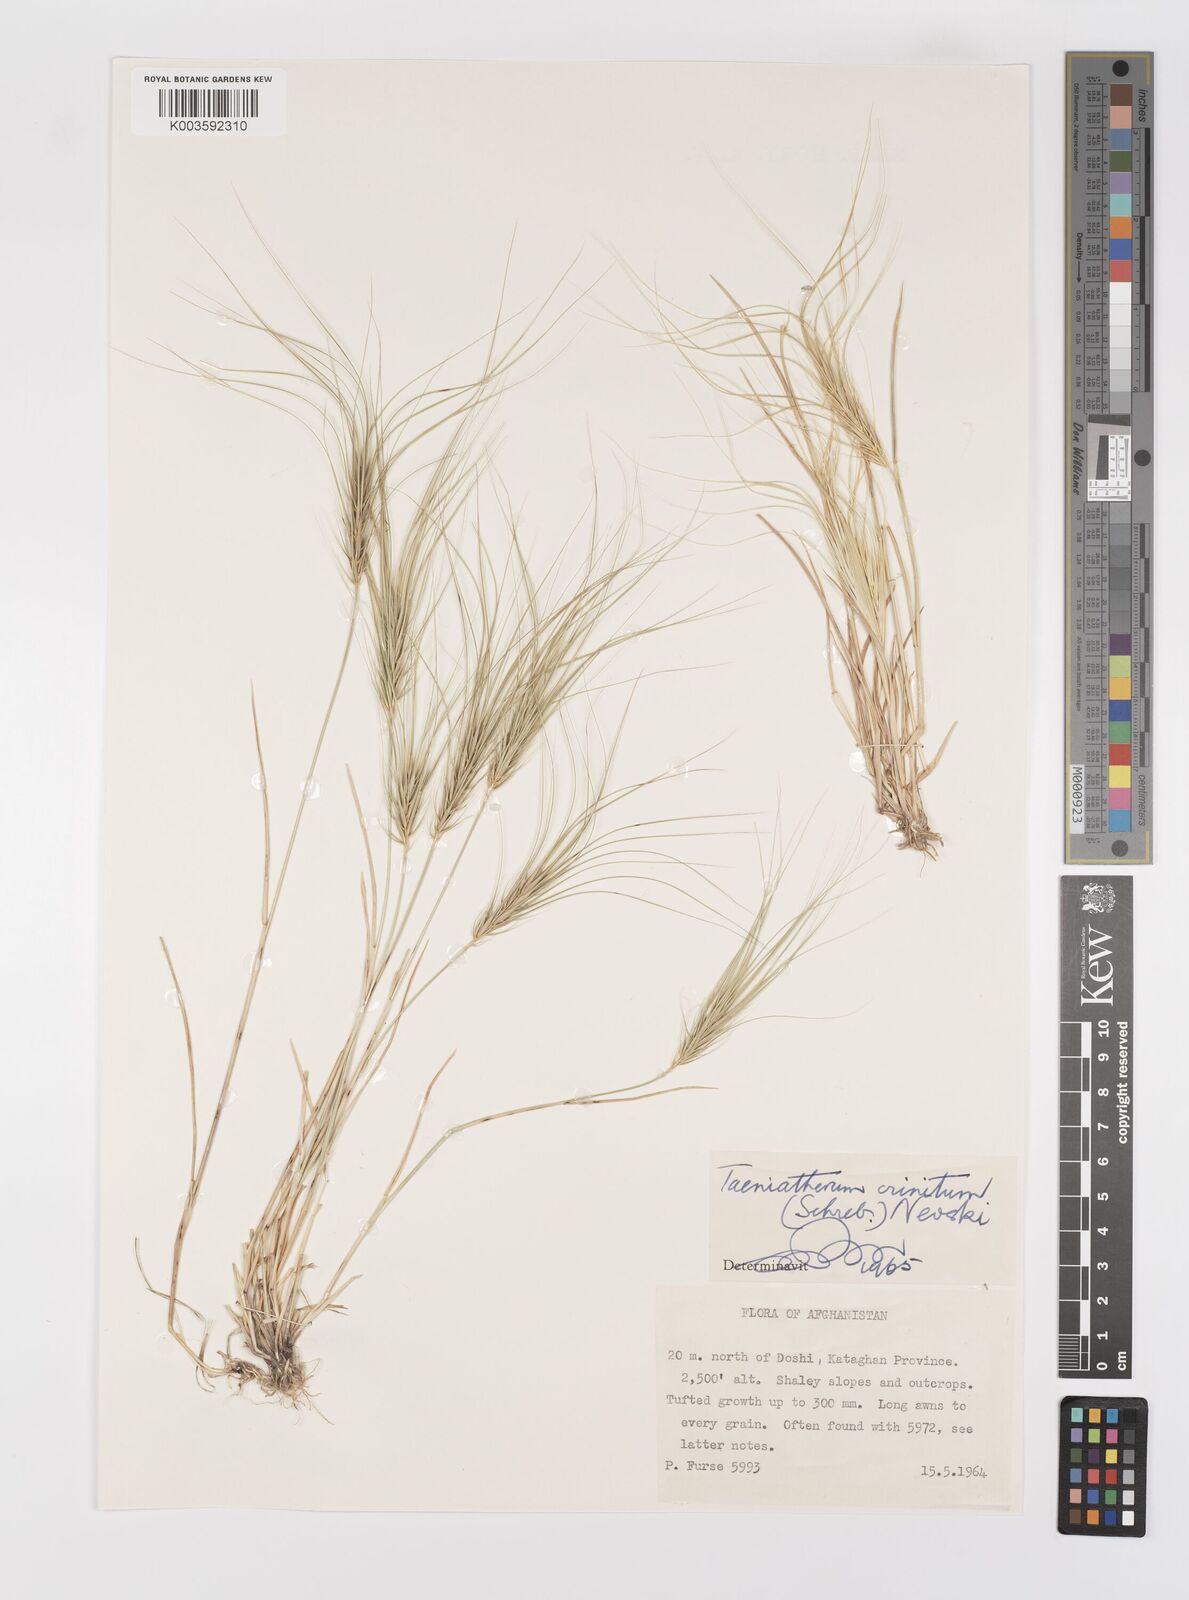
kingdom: Plantae
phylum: Tracheophyta
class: Liliopsida
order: Poales
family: Poaceae
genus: Taeniatherum
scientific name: Taeniatherum caput-medusae
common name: Medusahead
